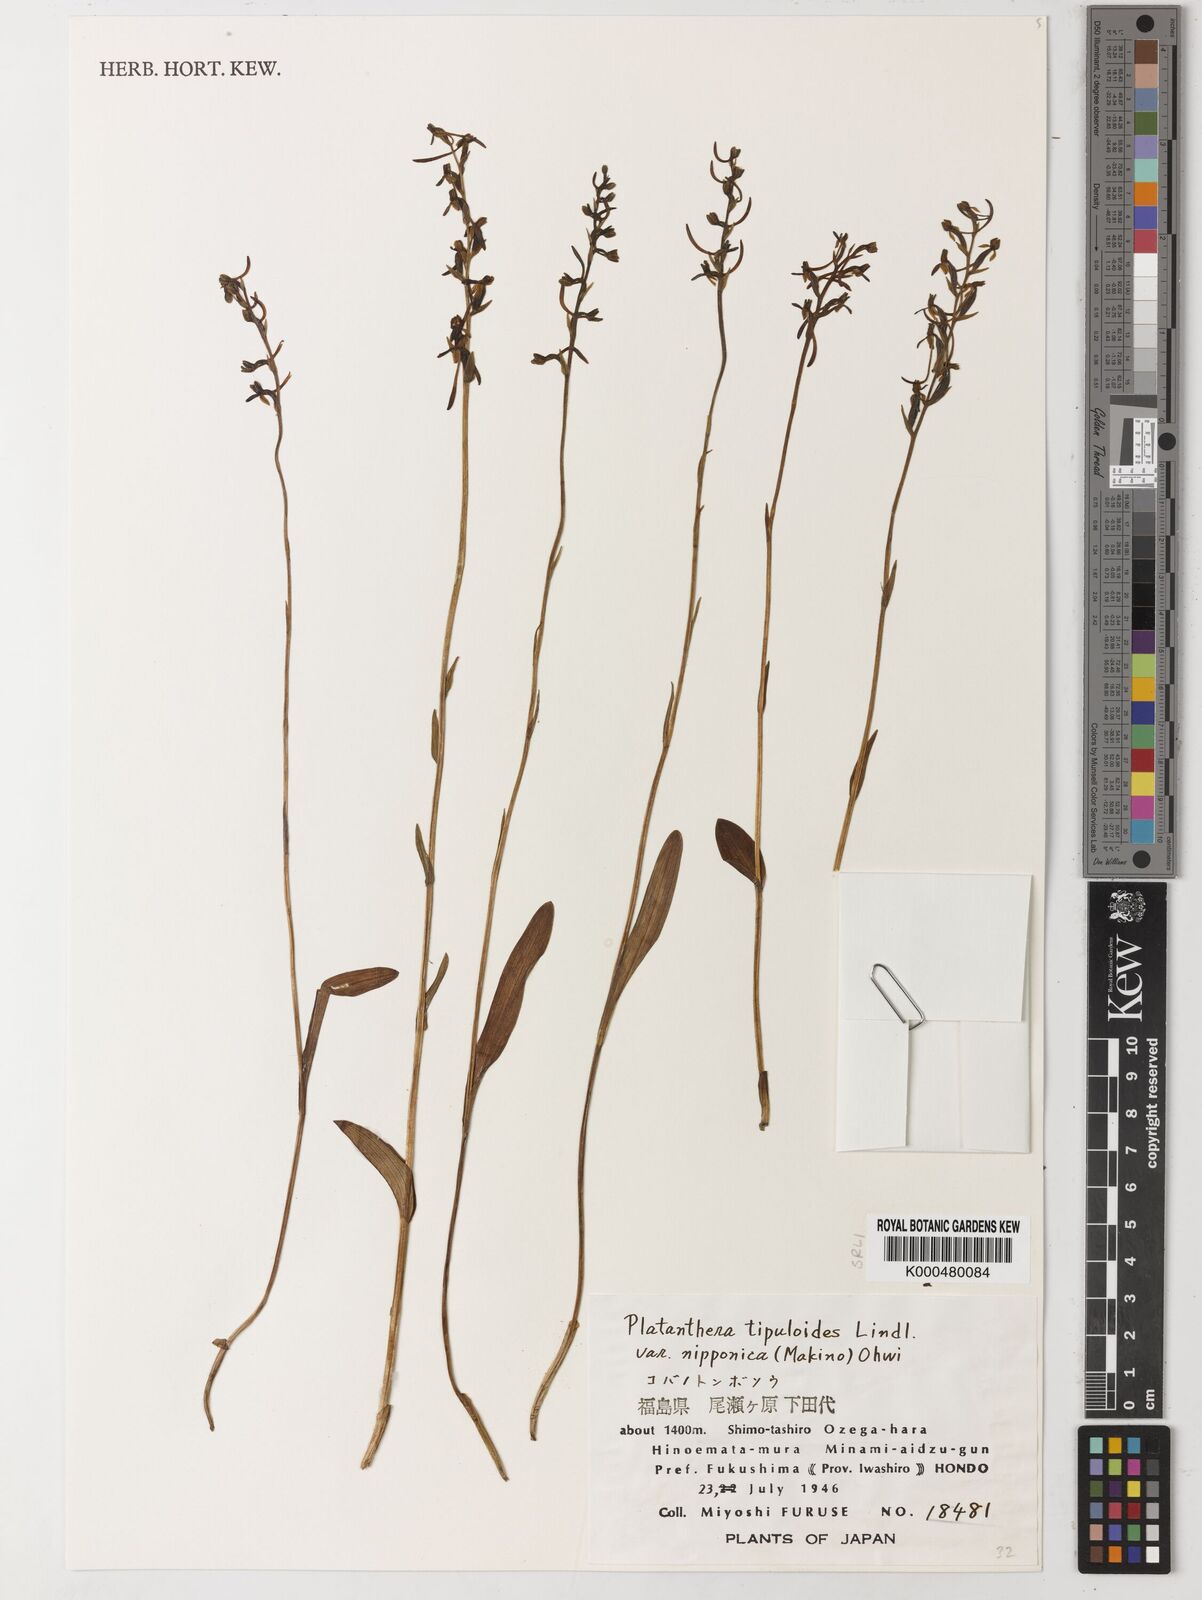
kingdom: Plantae
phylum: Tracheophyta
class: Liliopsida
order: Asparagales
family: Orchidaceae
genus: Platanthera
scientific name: Platanthera nipponica
